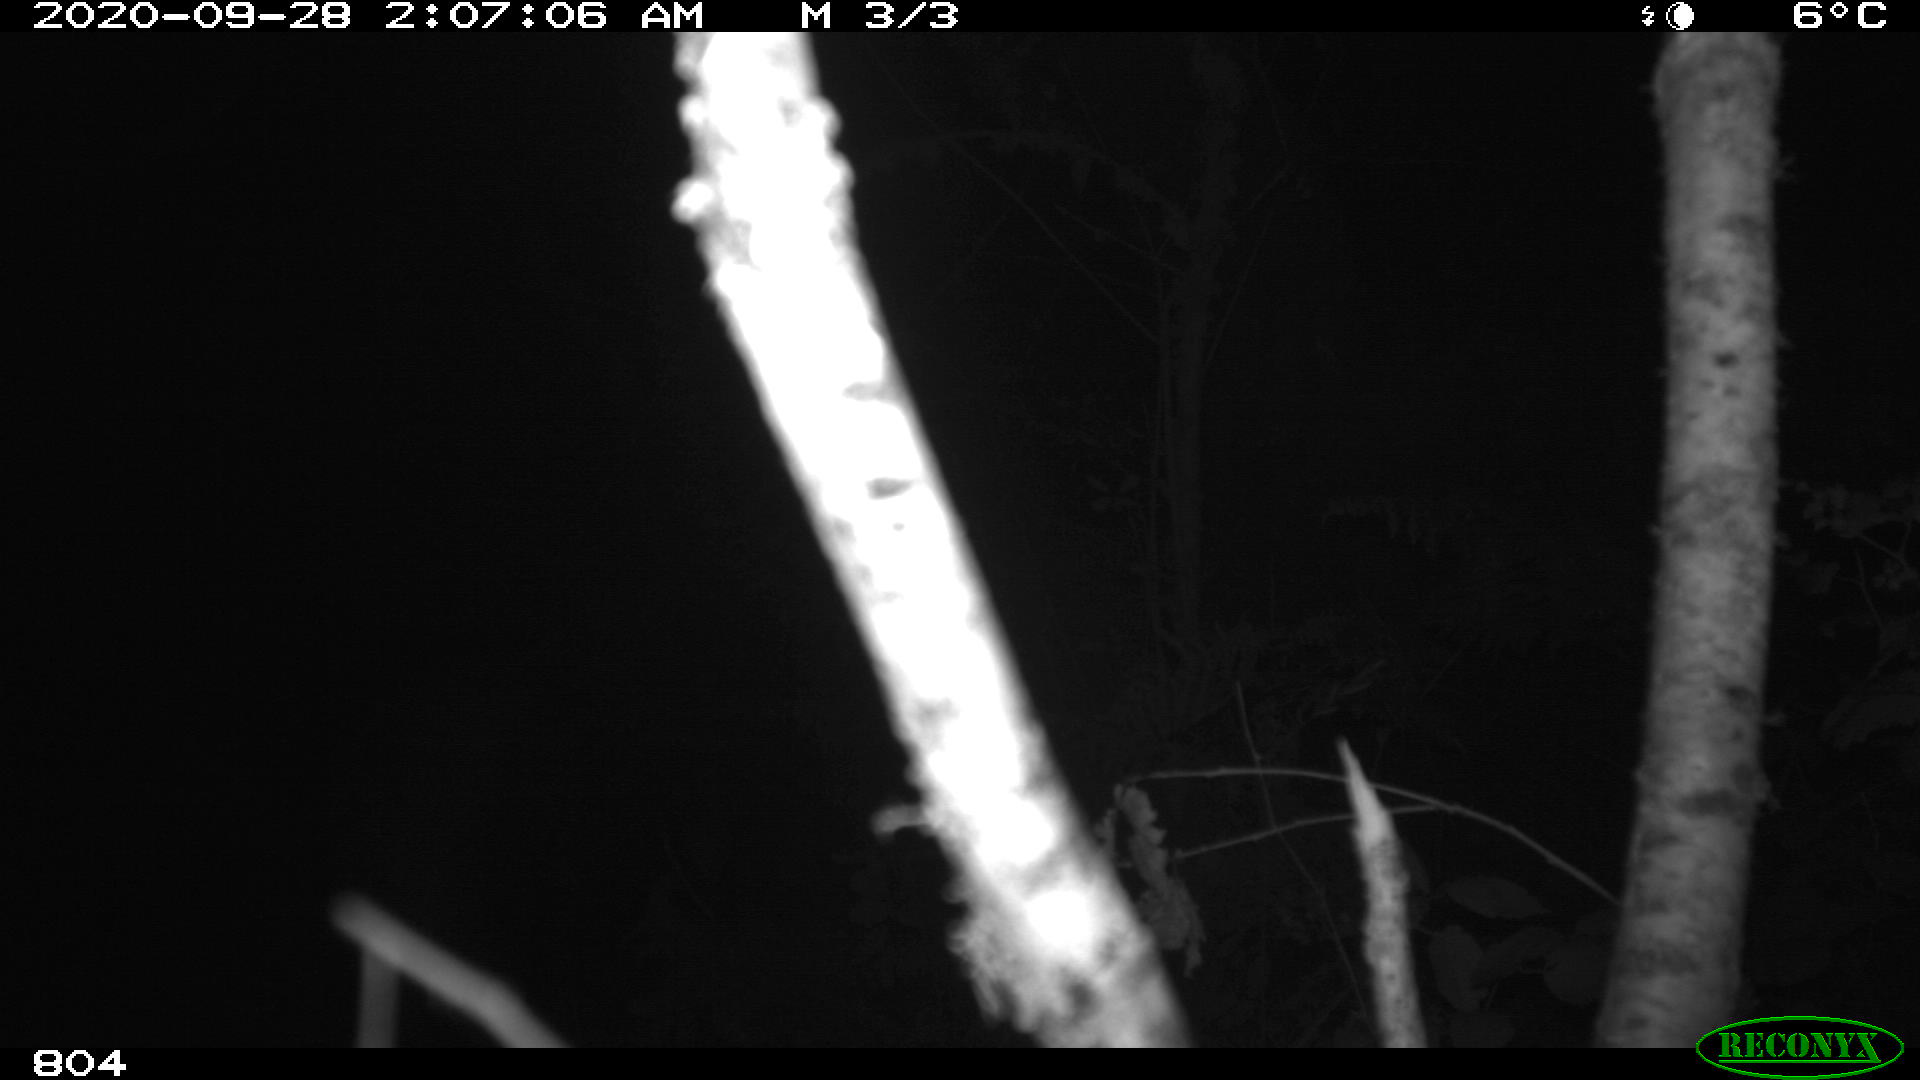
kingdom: Animalia
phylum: Chordata
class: Mammalia
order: Artiodactyla
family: Suidae
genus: Sus
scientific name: Sus scrofa
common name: Wild boar
